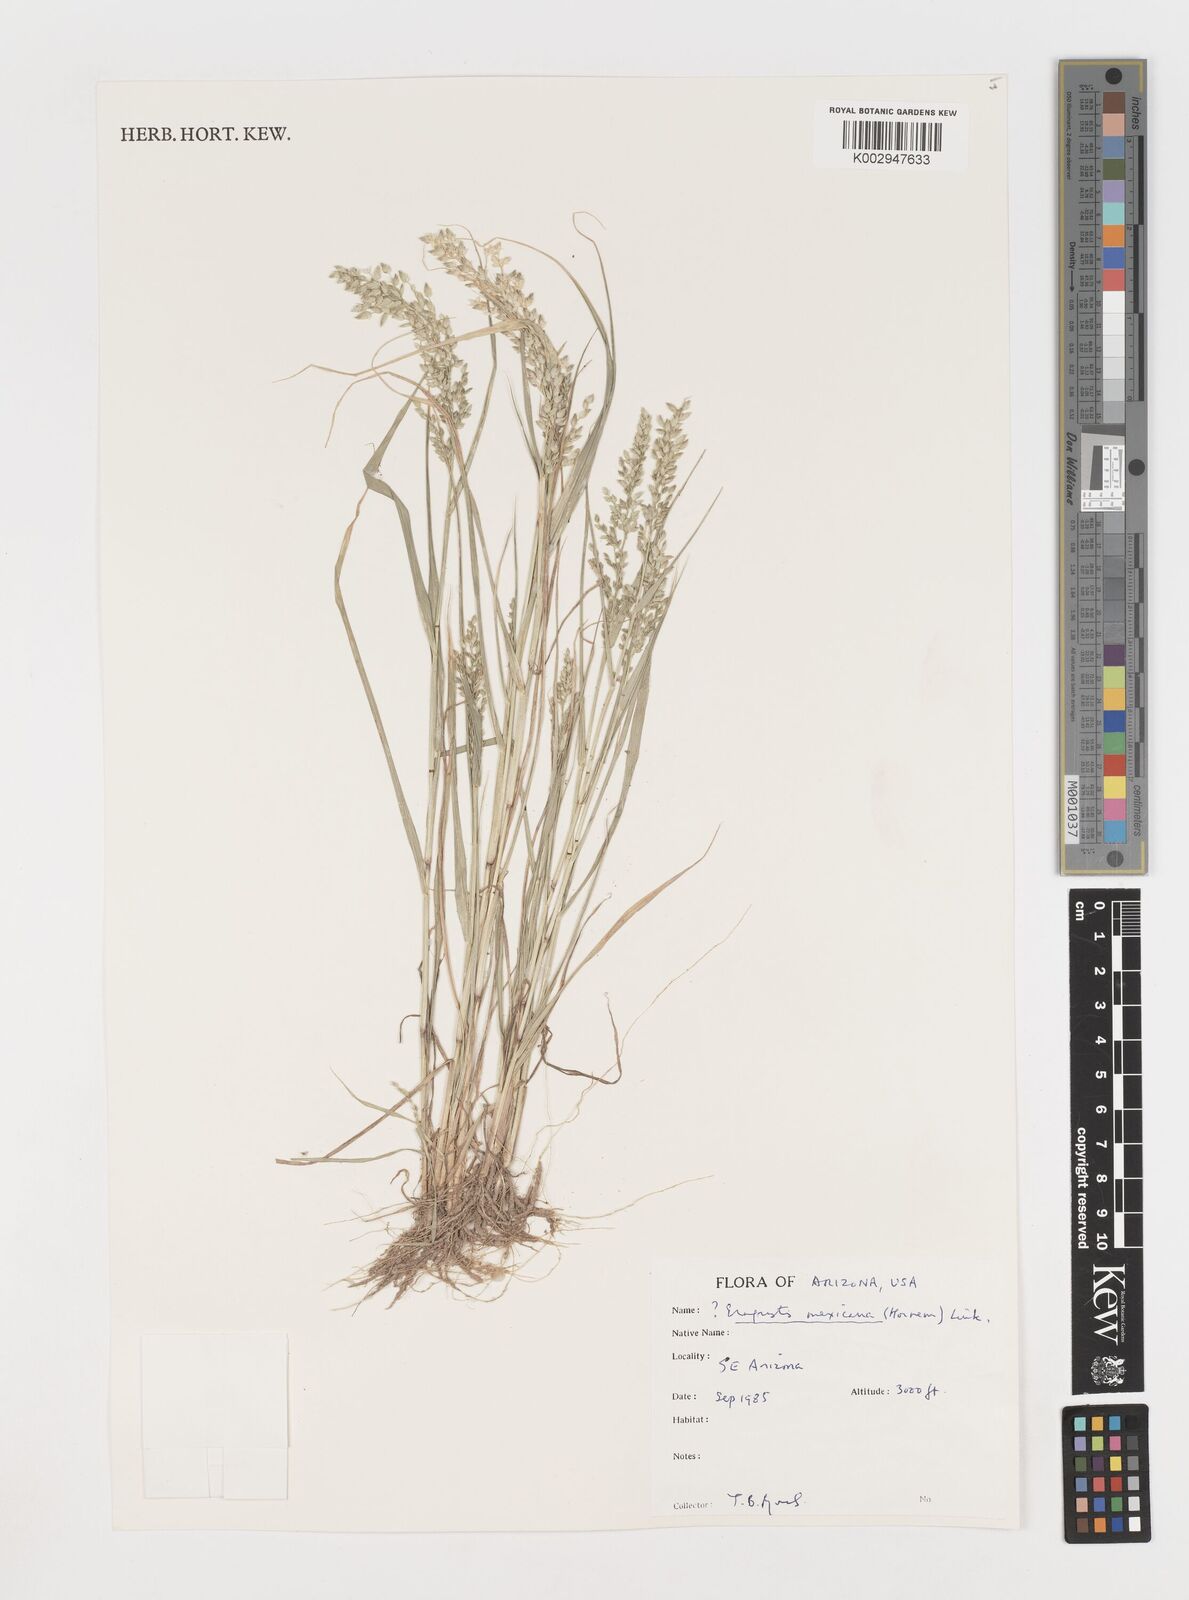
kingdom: Plantae
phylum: Tracheophyta
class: Liliopsida
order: Poales
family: Poaceae
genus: Eragrostis
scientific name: Eragrostis mexicana
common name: Mexican love grass
